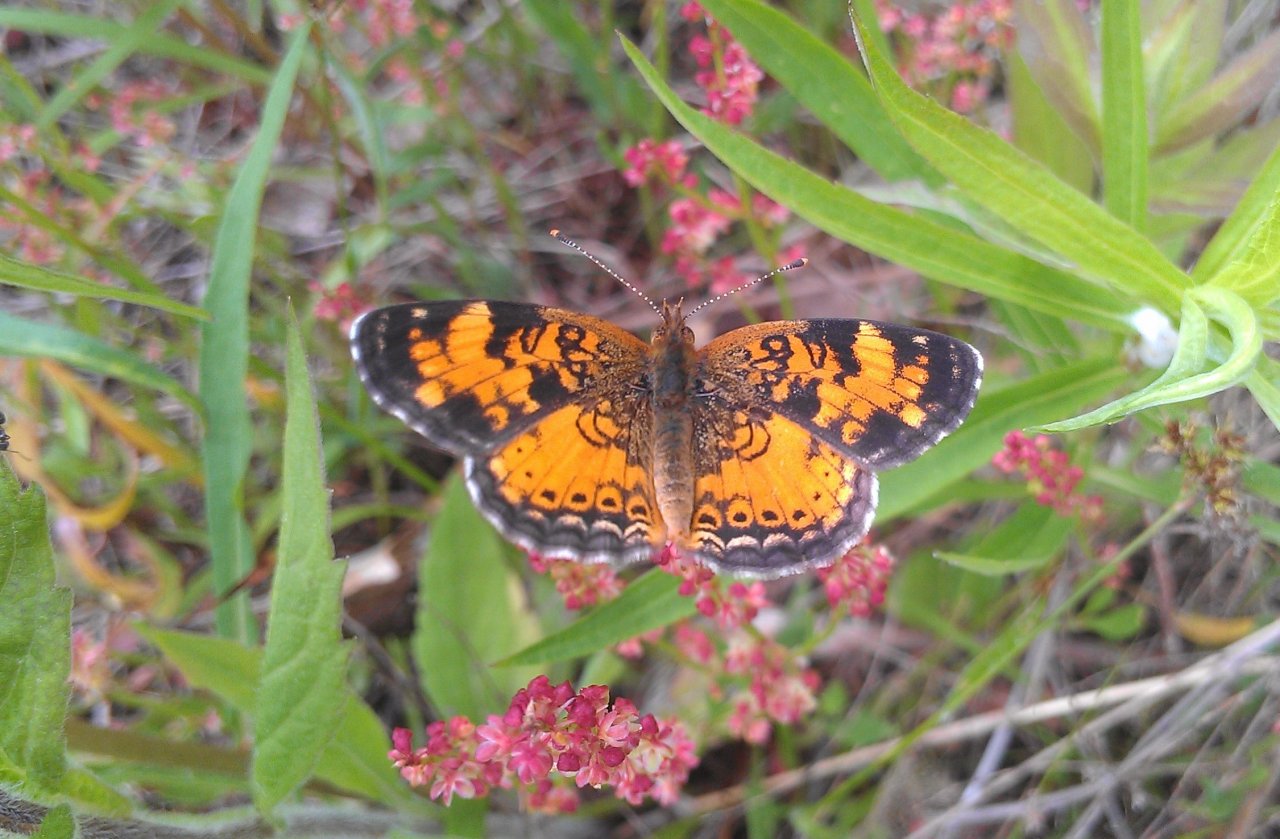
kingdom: Animalia
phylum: Arthropoda
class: Insecta
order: Lepidoptera
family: Nymphalidae
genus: Phyciodes
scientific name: Phyciodes tharos
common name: Northern Crescent
